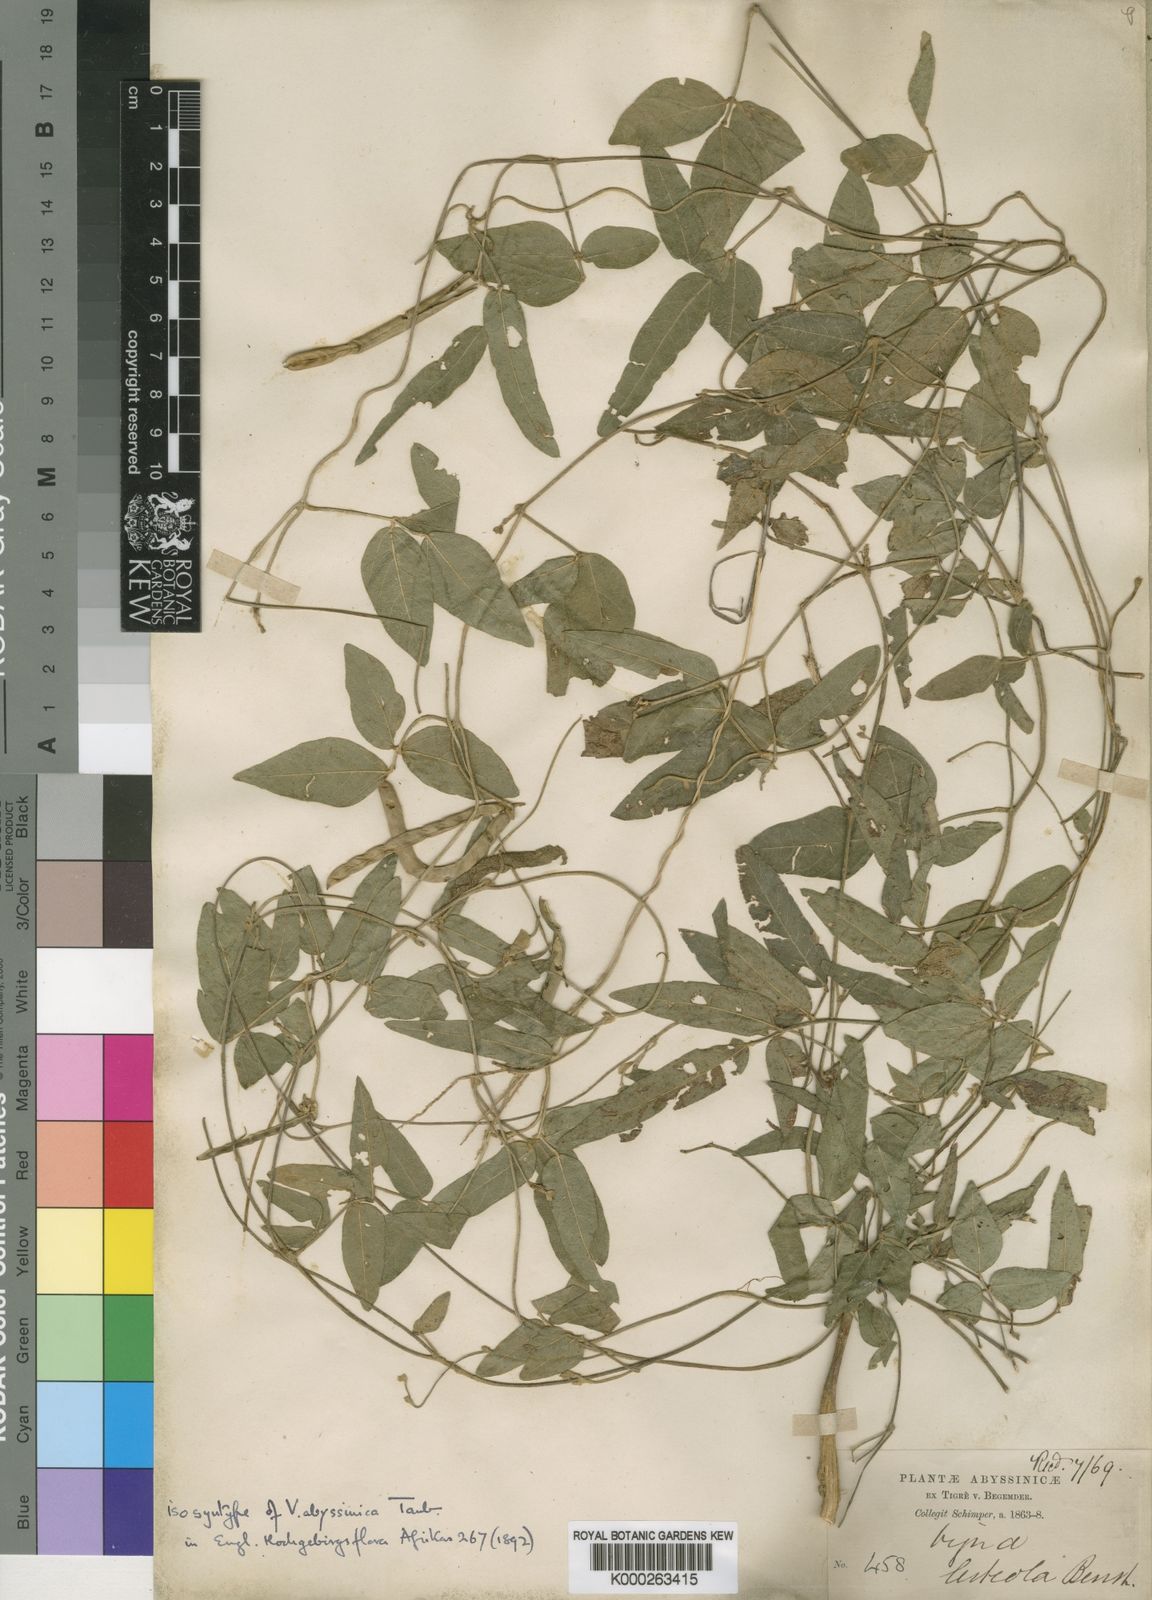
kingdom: Plantae
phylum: Tracheophyta
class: Magnoliopsida
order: Fabales
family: Fabaceae
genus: Vigna
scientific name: Vigna ambacensis
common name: Tsarkiyan zomo
